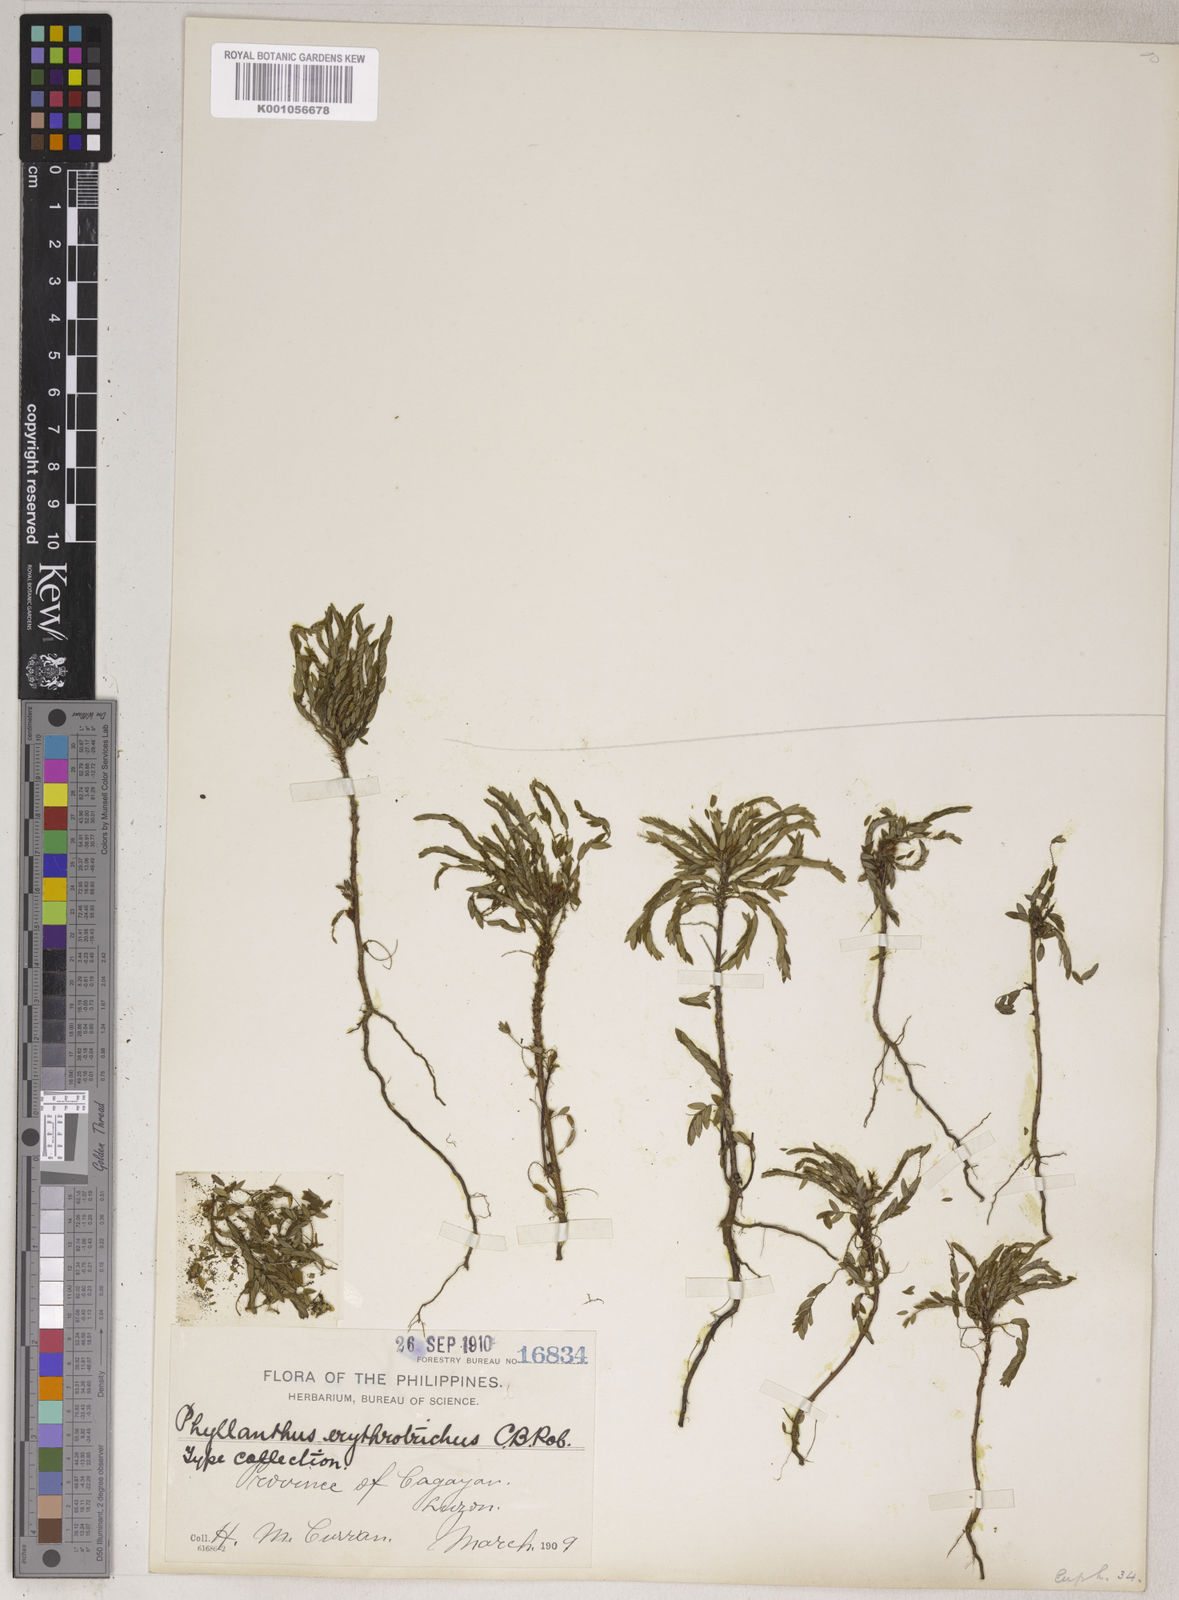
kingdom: Plantae
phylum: Tracheophyta
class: Magnoliopsida
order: Malpighiales
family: Phyllanthaceae
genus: Phyllanthus
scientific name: Phyllanthus erythrotrichus
